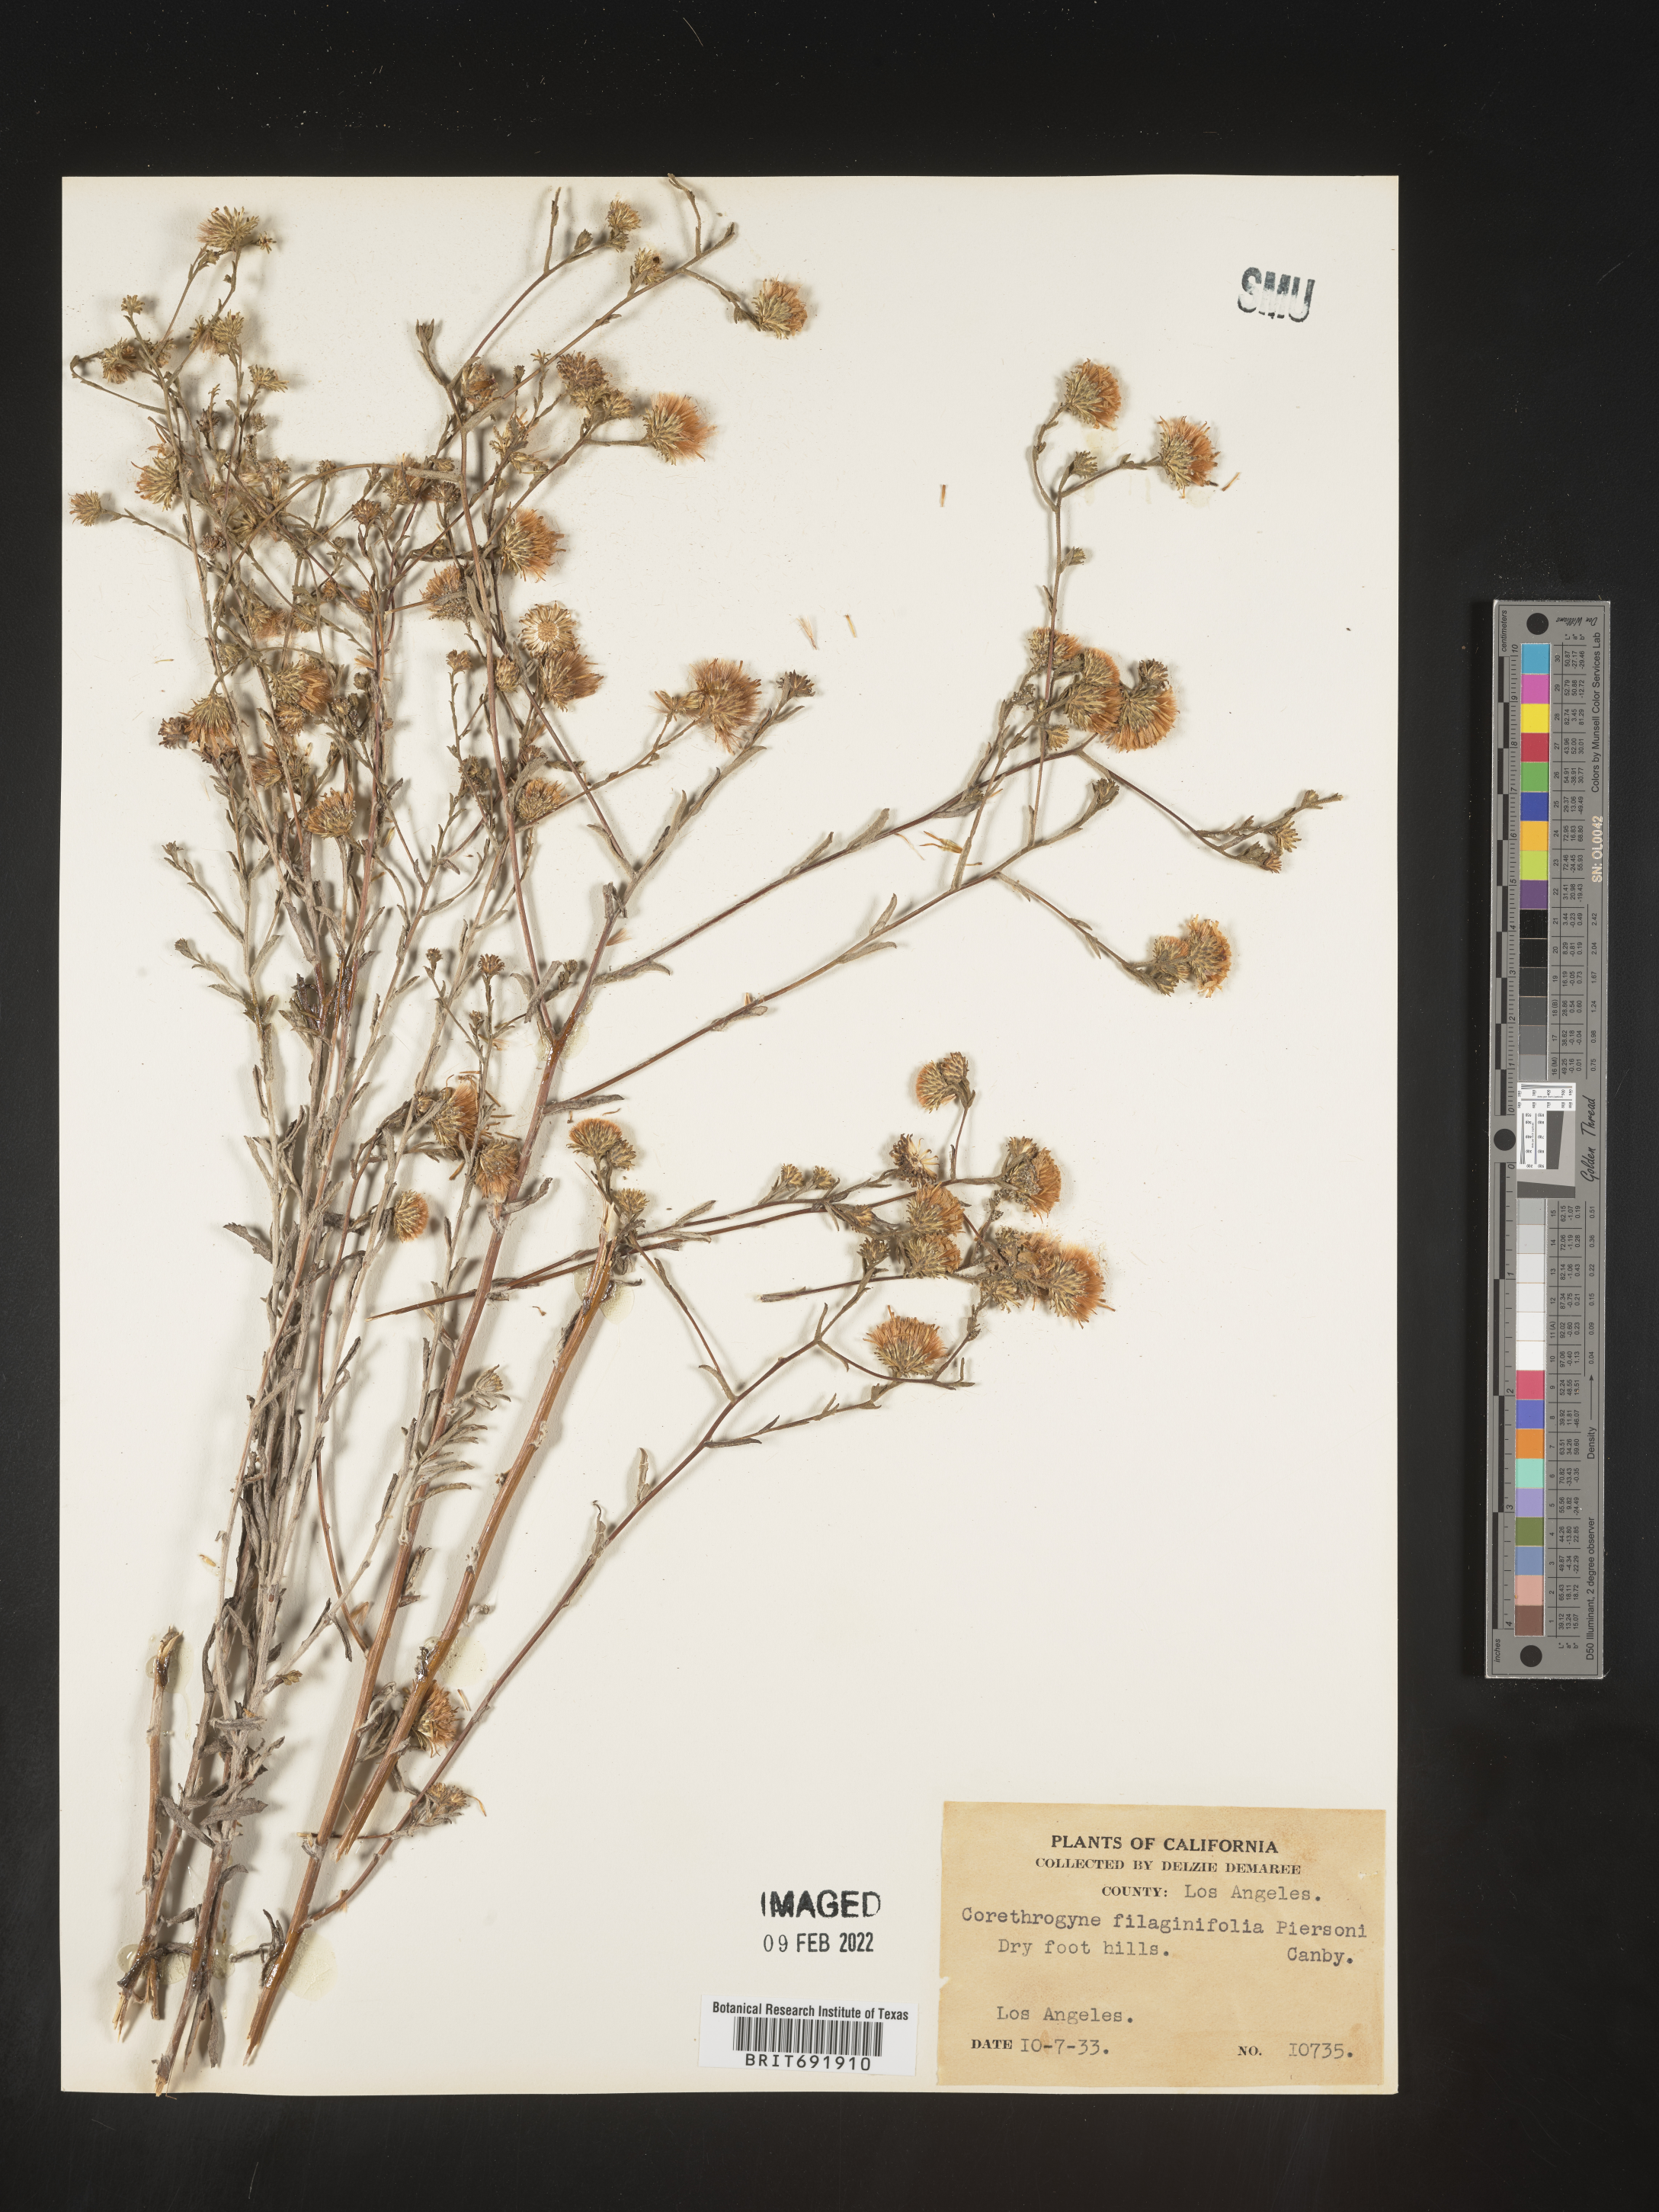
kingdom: Plantae
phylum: Tracheophyta
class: Magnoliopsida
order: Asterales
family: Asteraceae
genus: Corethrogyne
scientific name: Corethrogyne
